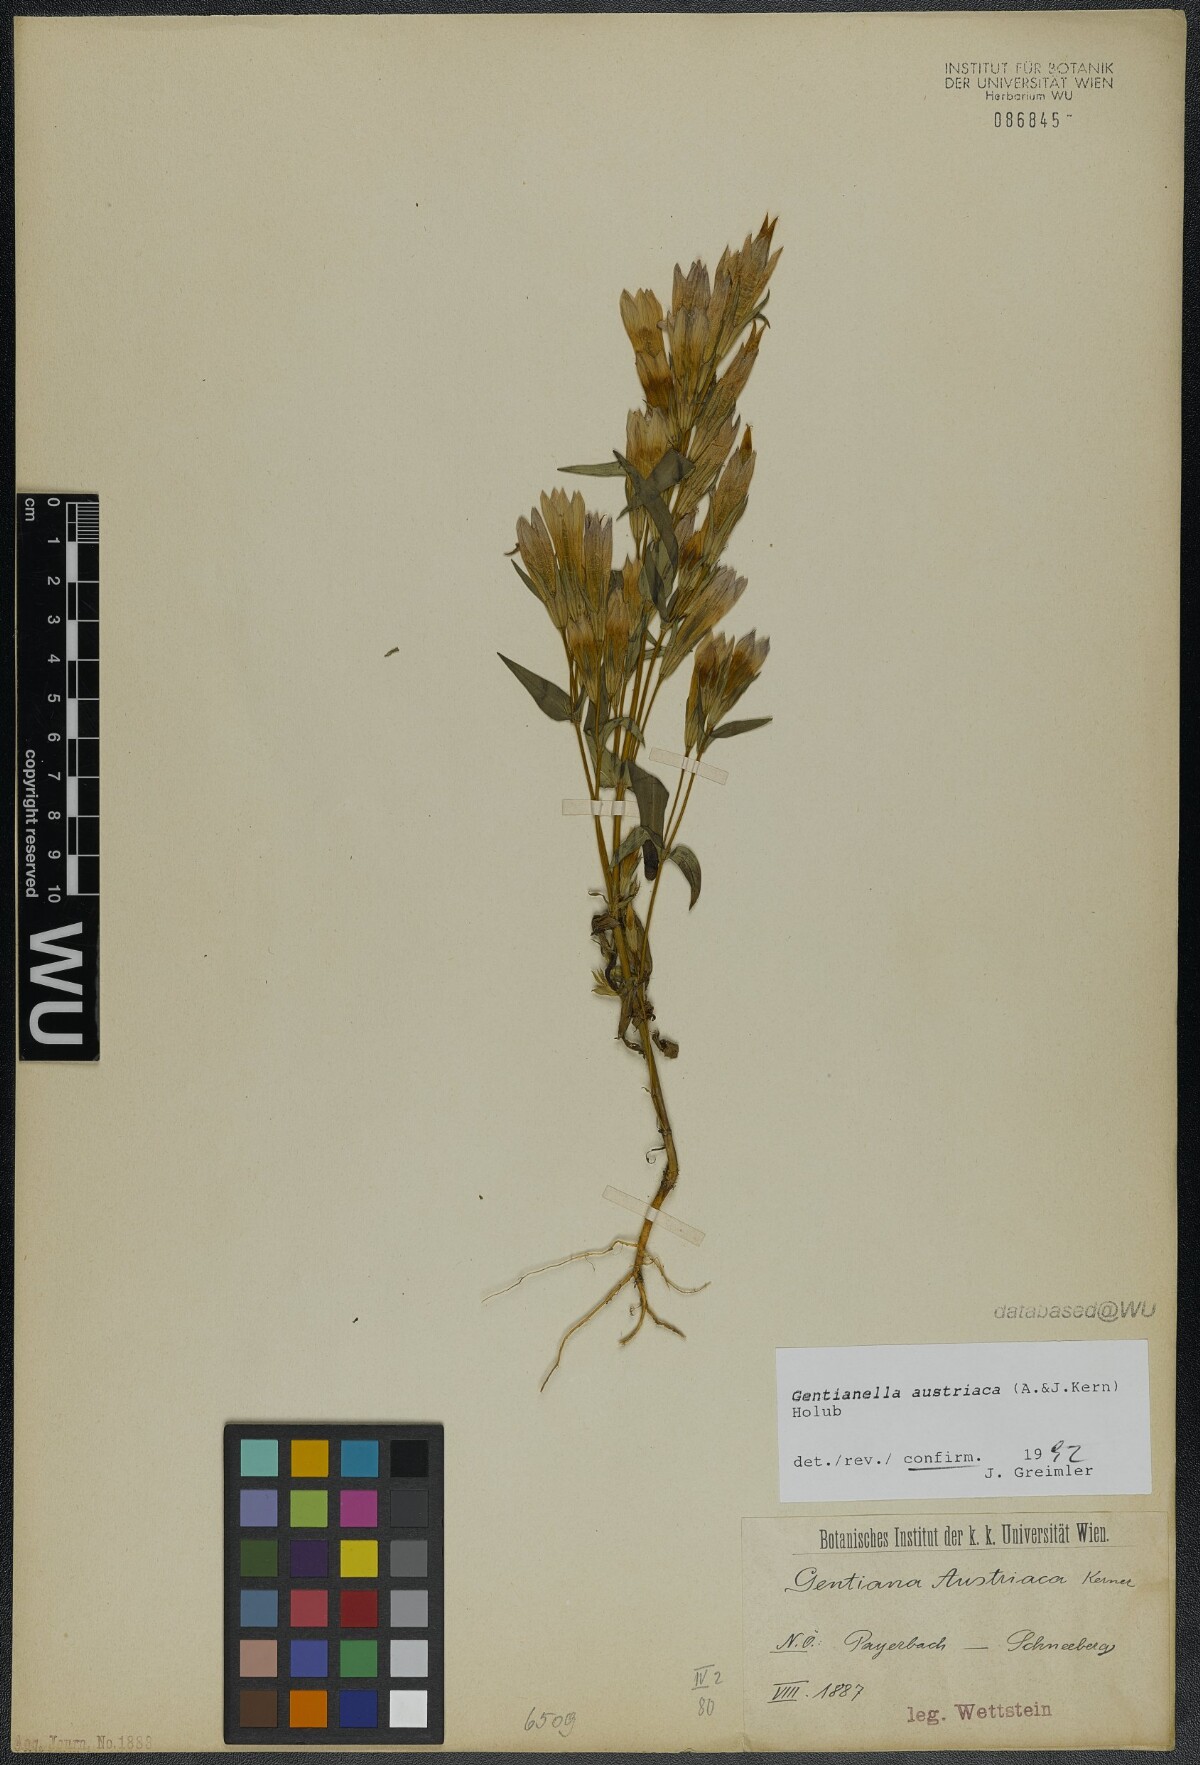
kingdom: Plantae
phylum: Tracheophyta
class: Magnoliopsida
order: Gentianales
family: Gentianaceae
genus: Gentianella
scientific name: Gentianella austriaca
